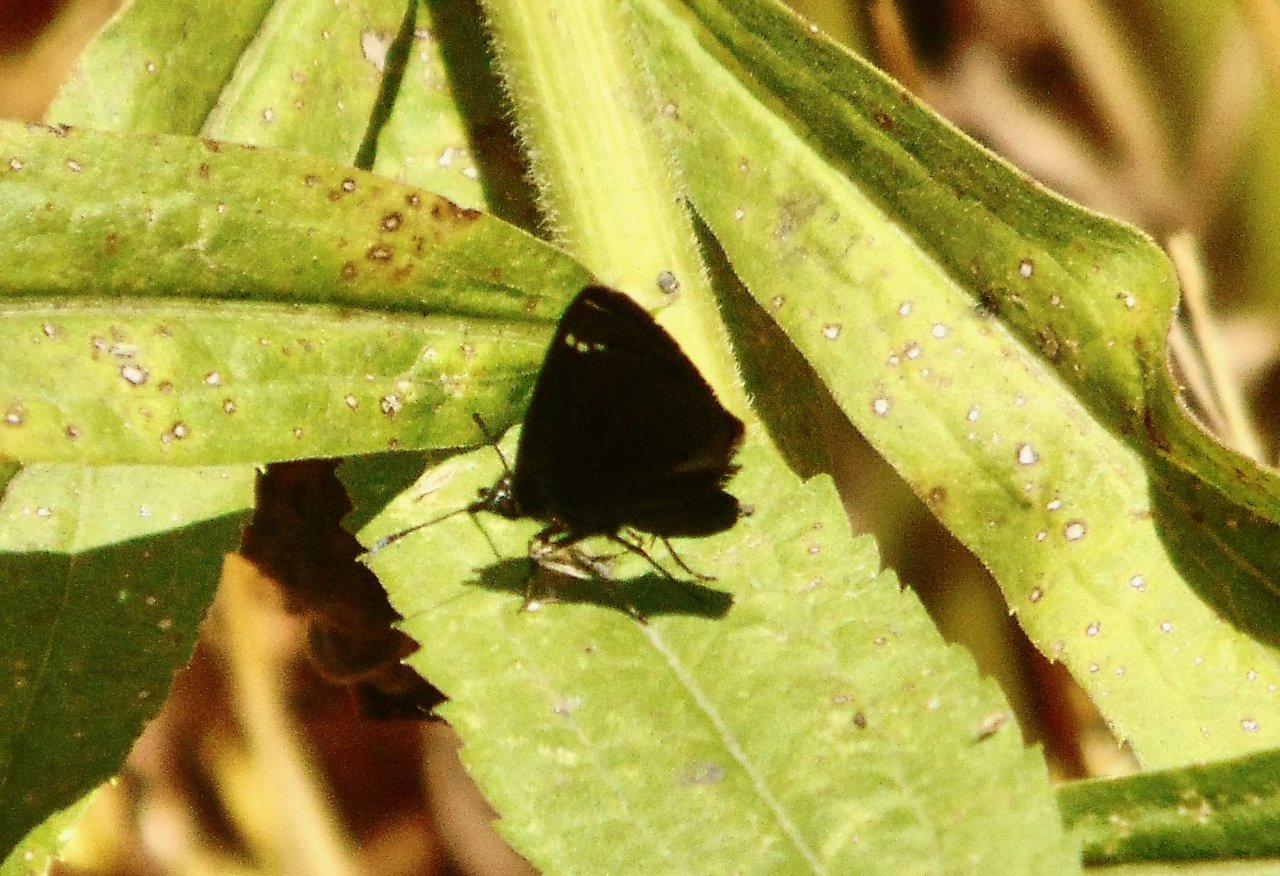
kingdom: Animalia
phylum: Arthropoda
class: Insecta
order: Lepidoptera
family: Hesperiidae
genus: Pholisora
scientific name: Pholisora catullus
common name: Common Sootywing
